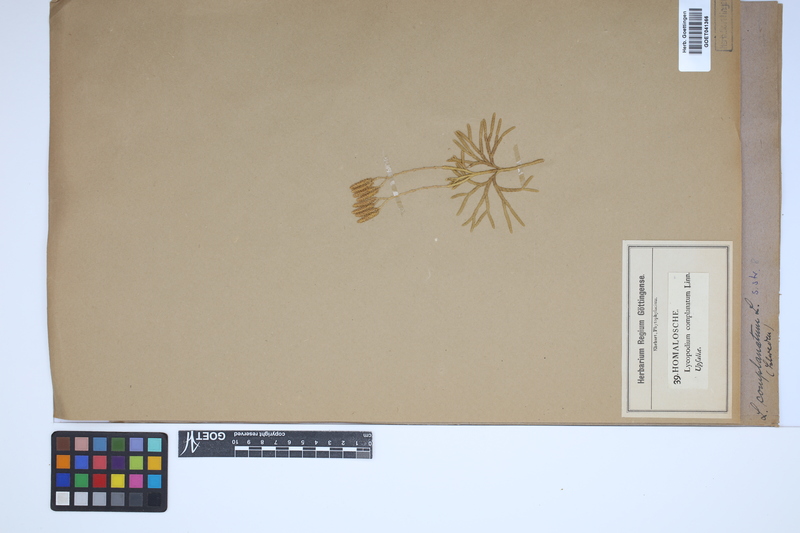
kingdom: Plantae
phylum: Tracheophyta
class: Lycopodiopsida
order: Lycopodiales
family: Lycopodiaceae
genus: Diphasiastrum
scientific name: Diphasiastrum complanatum
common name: Northern running-pine
